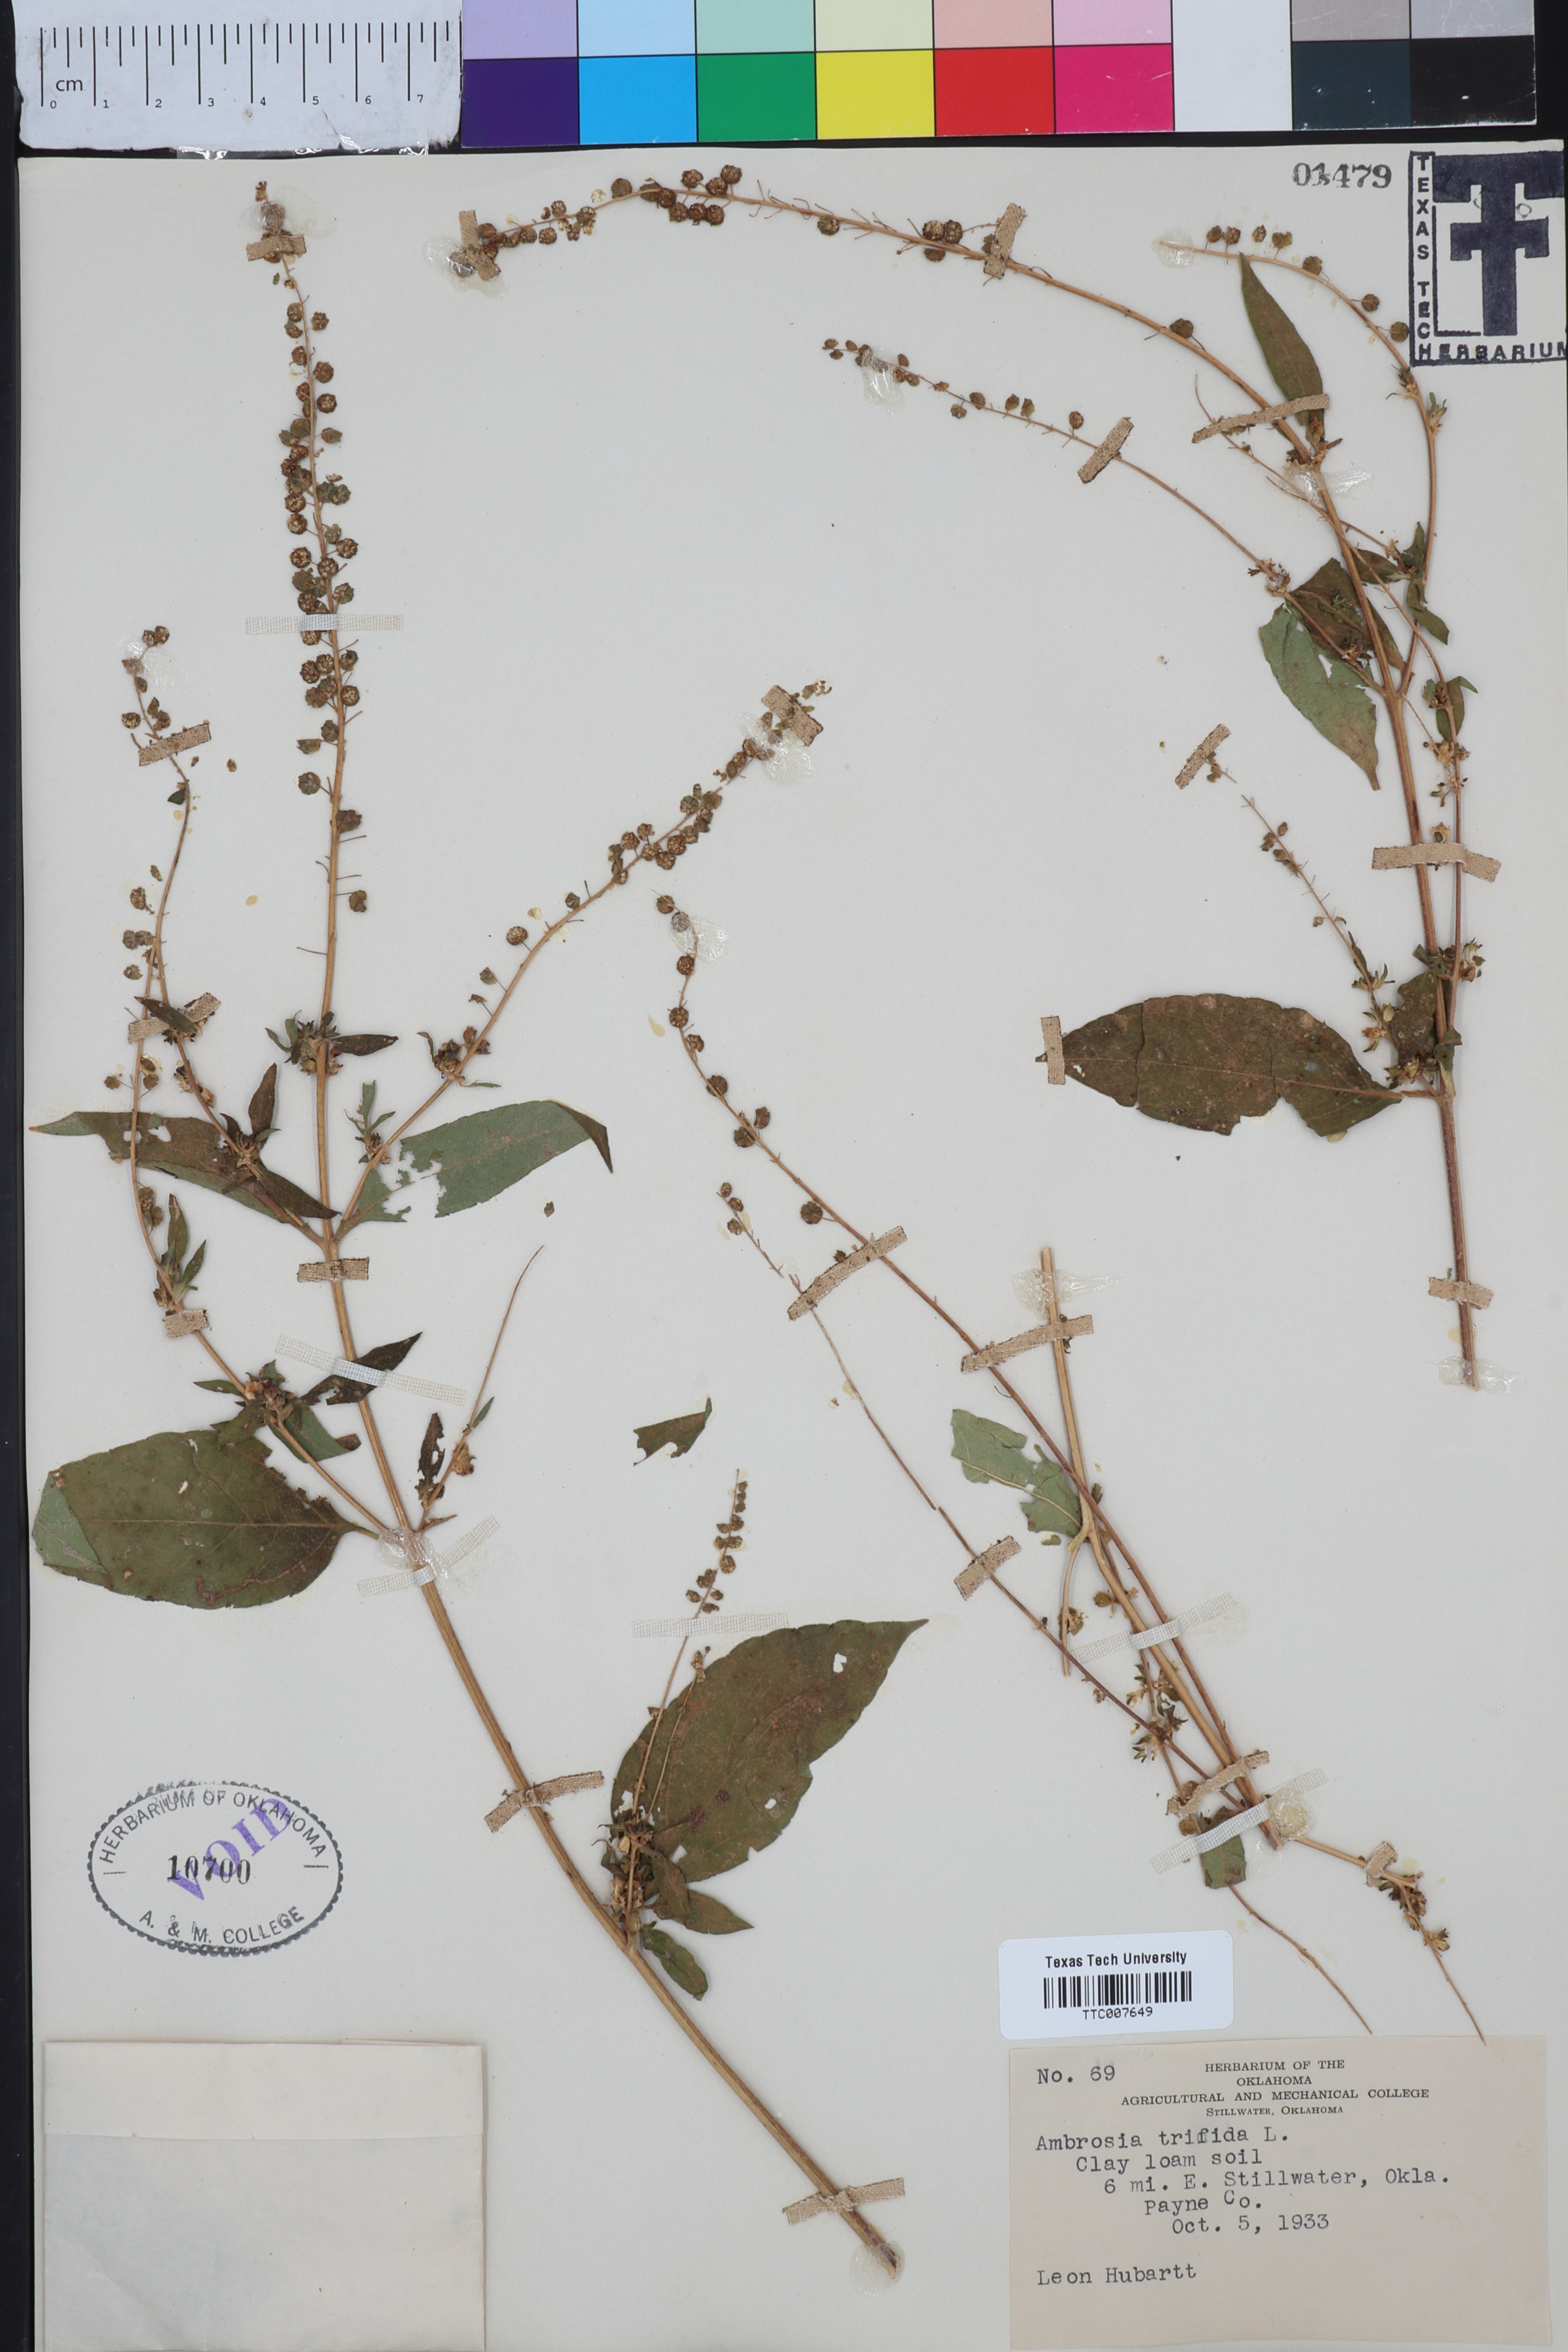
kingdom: Plantae
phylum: Tracheophyta
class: Magnoliopsida
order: Asterales
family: Asteraceae
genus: Ambrosia
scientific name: Ambrosia trifida
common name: Giant ragweed
